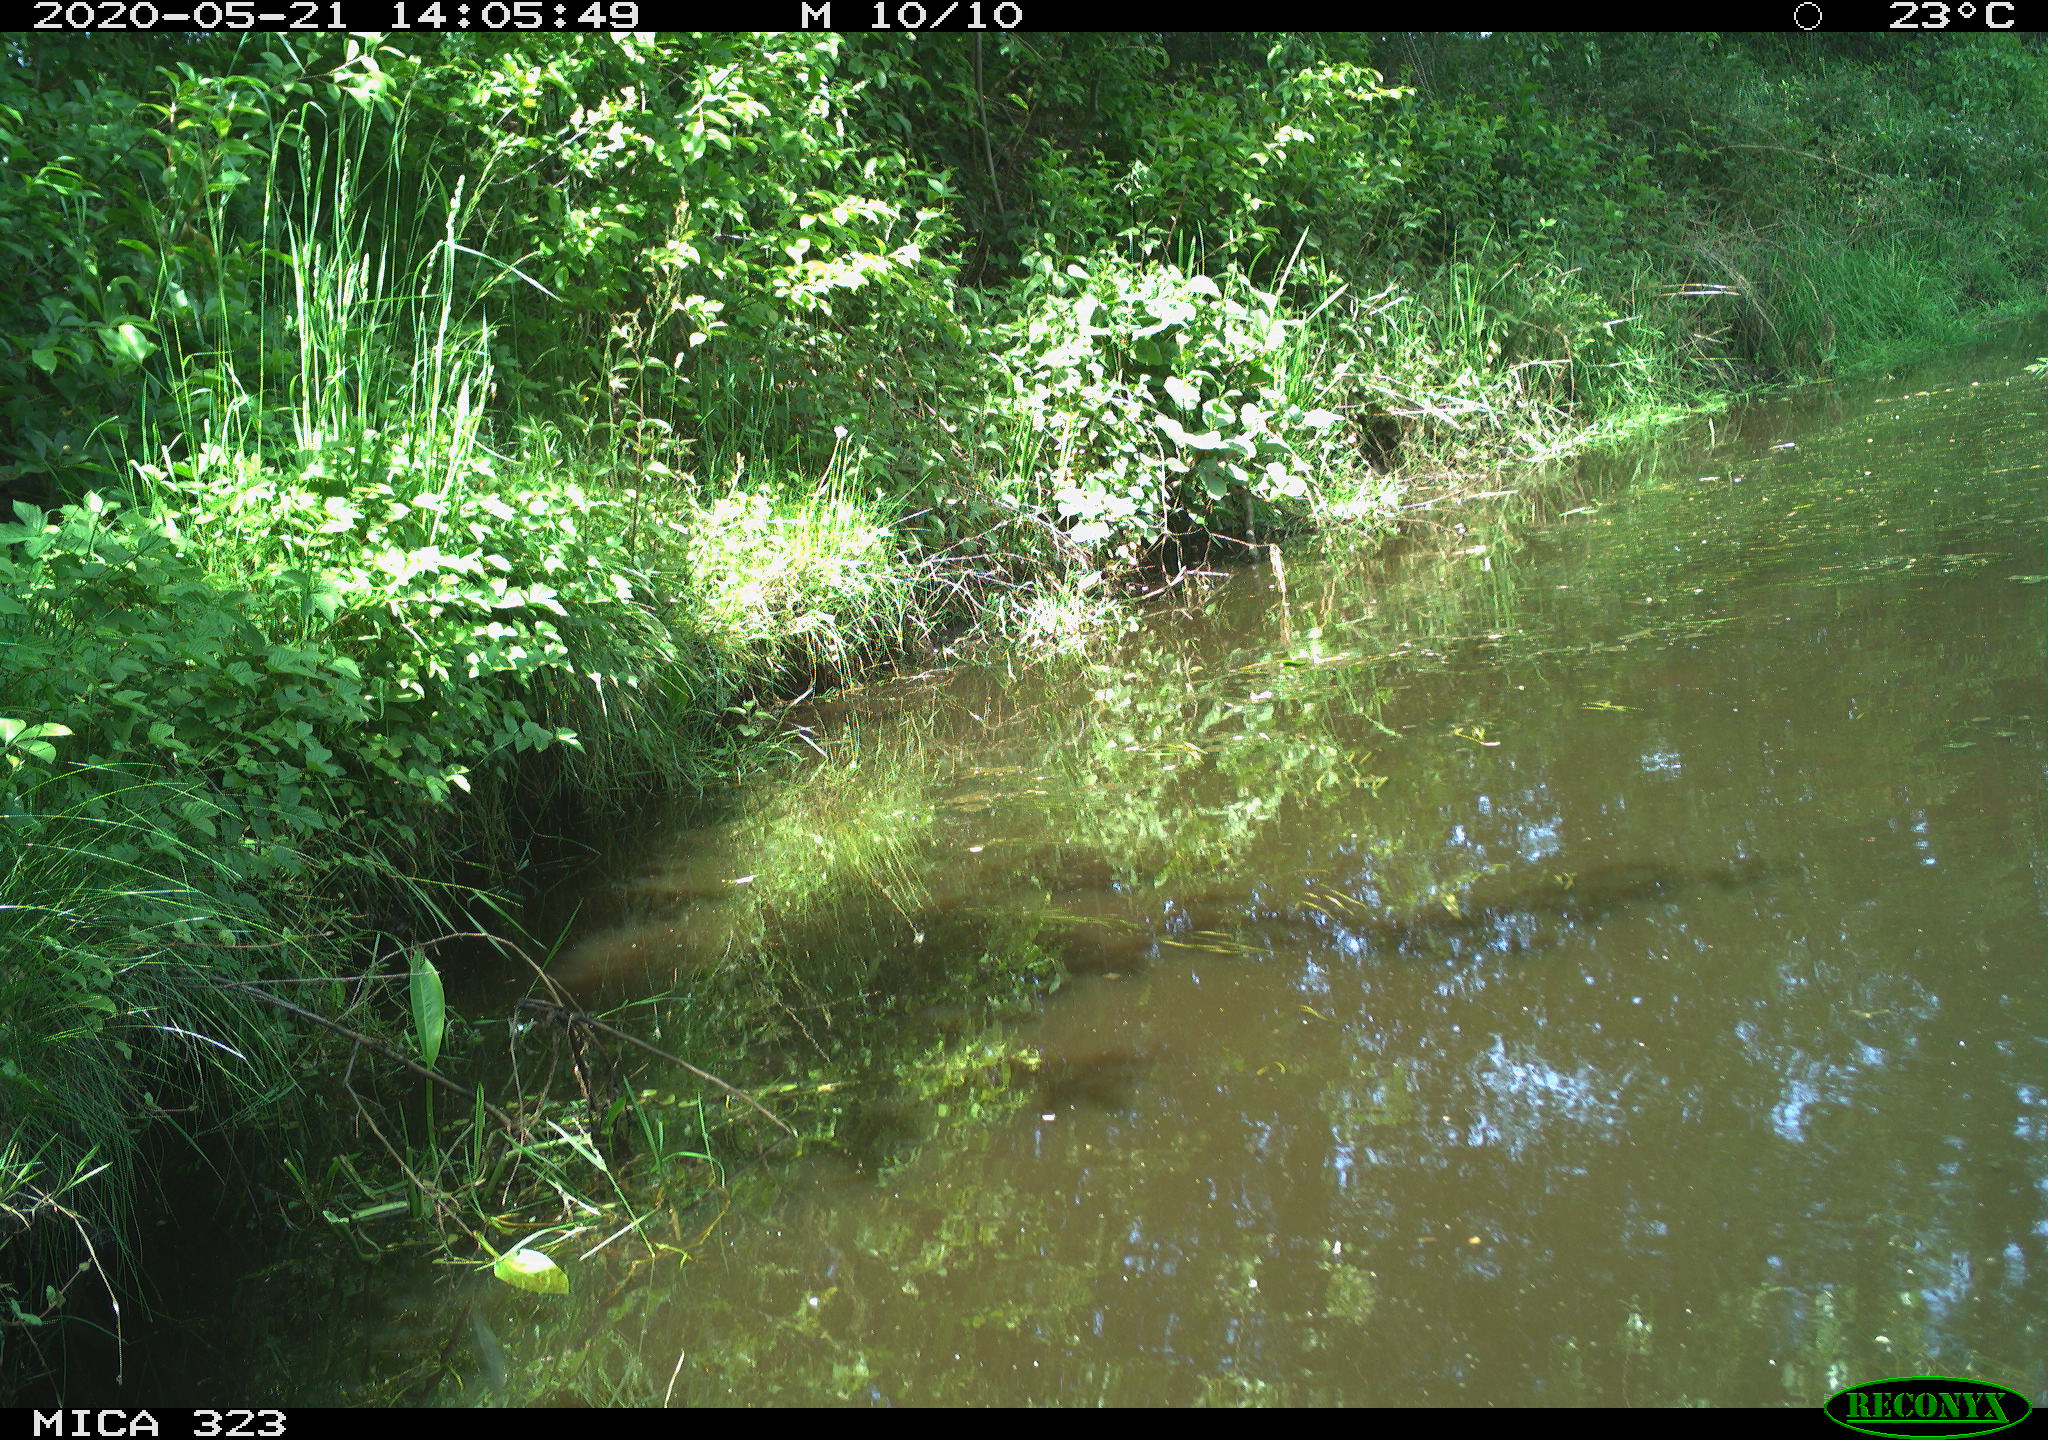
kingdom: Animalia
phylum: Chordata
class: Aves
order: Anseriformes
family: Anatidae
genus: Anas
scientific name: Anas platyrhynchos
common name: Mallard
